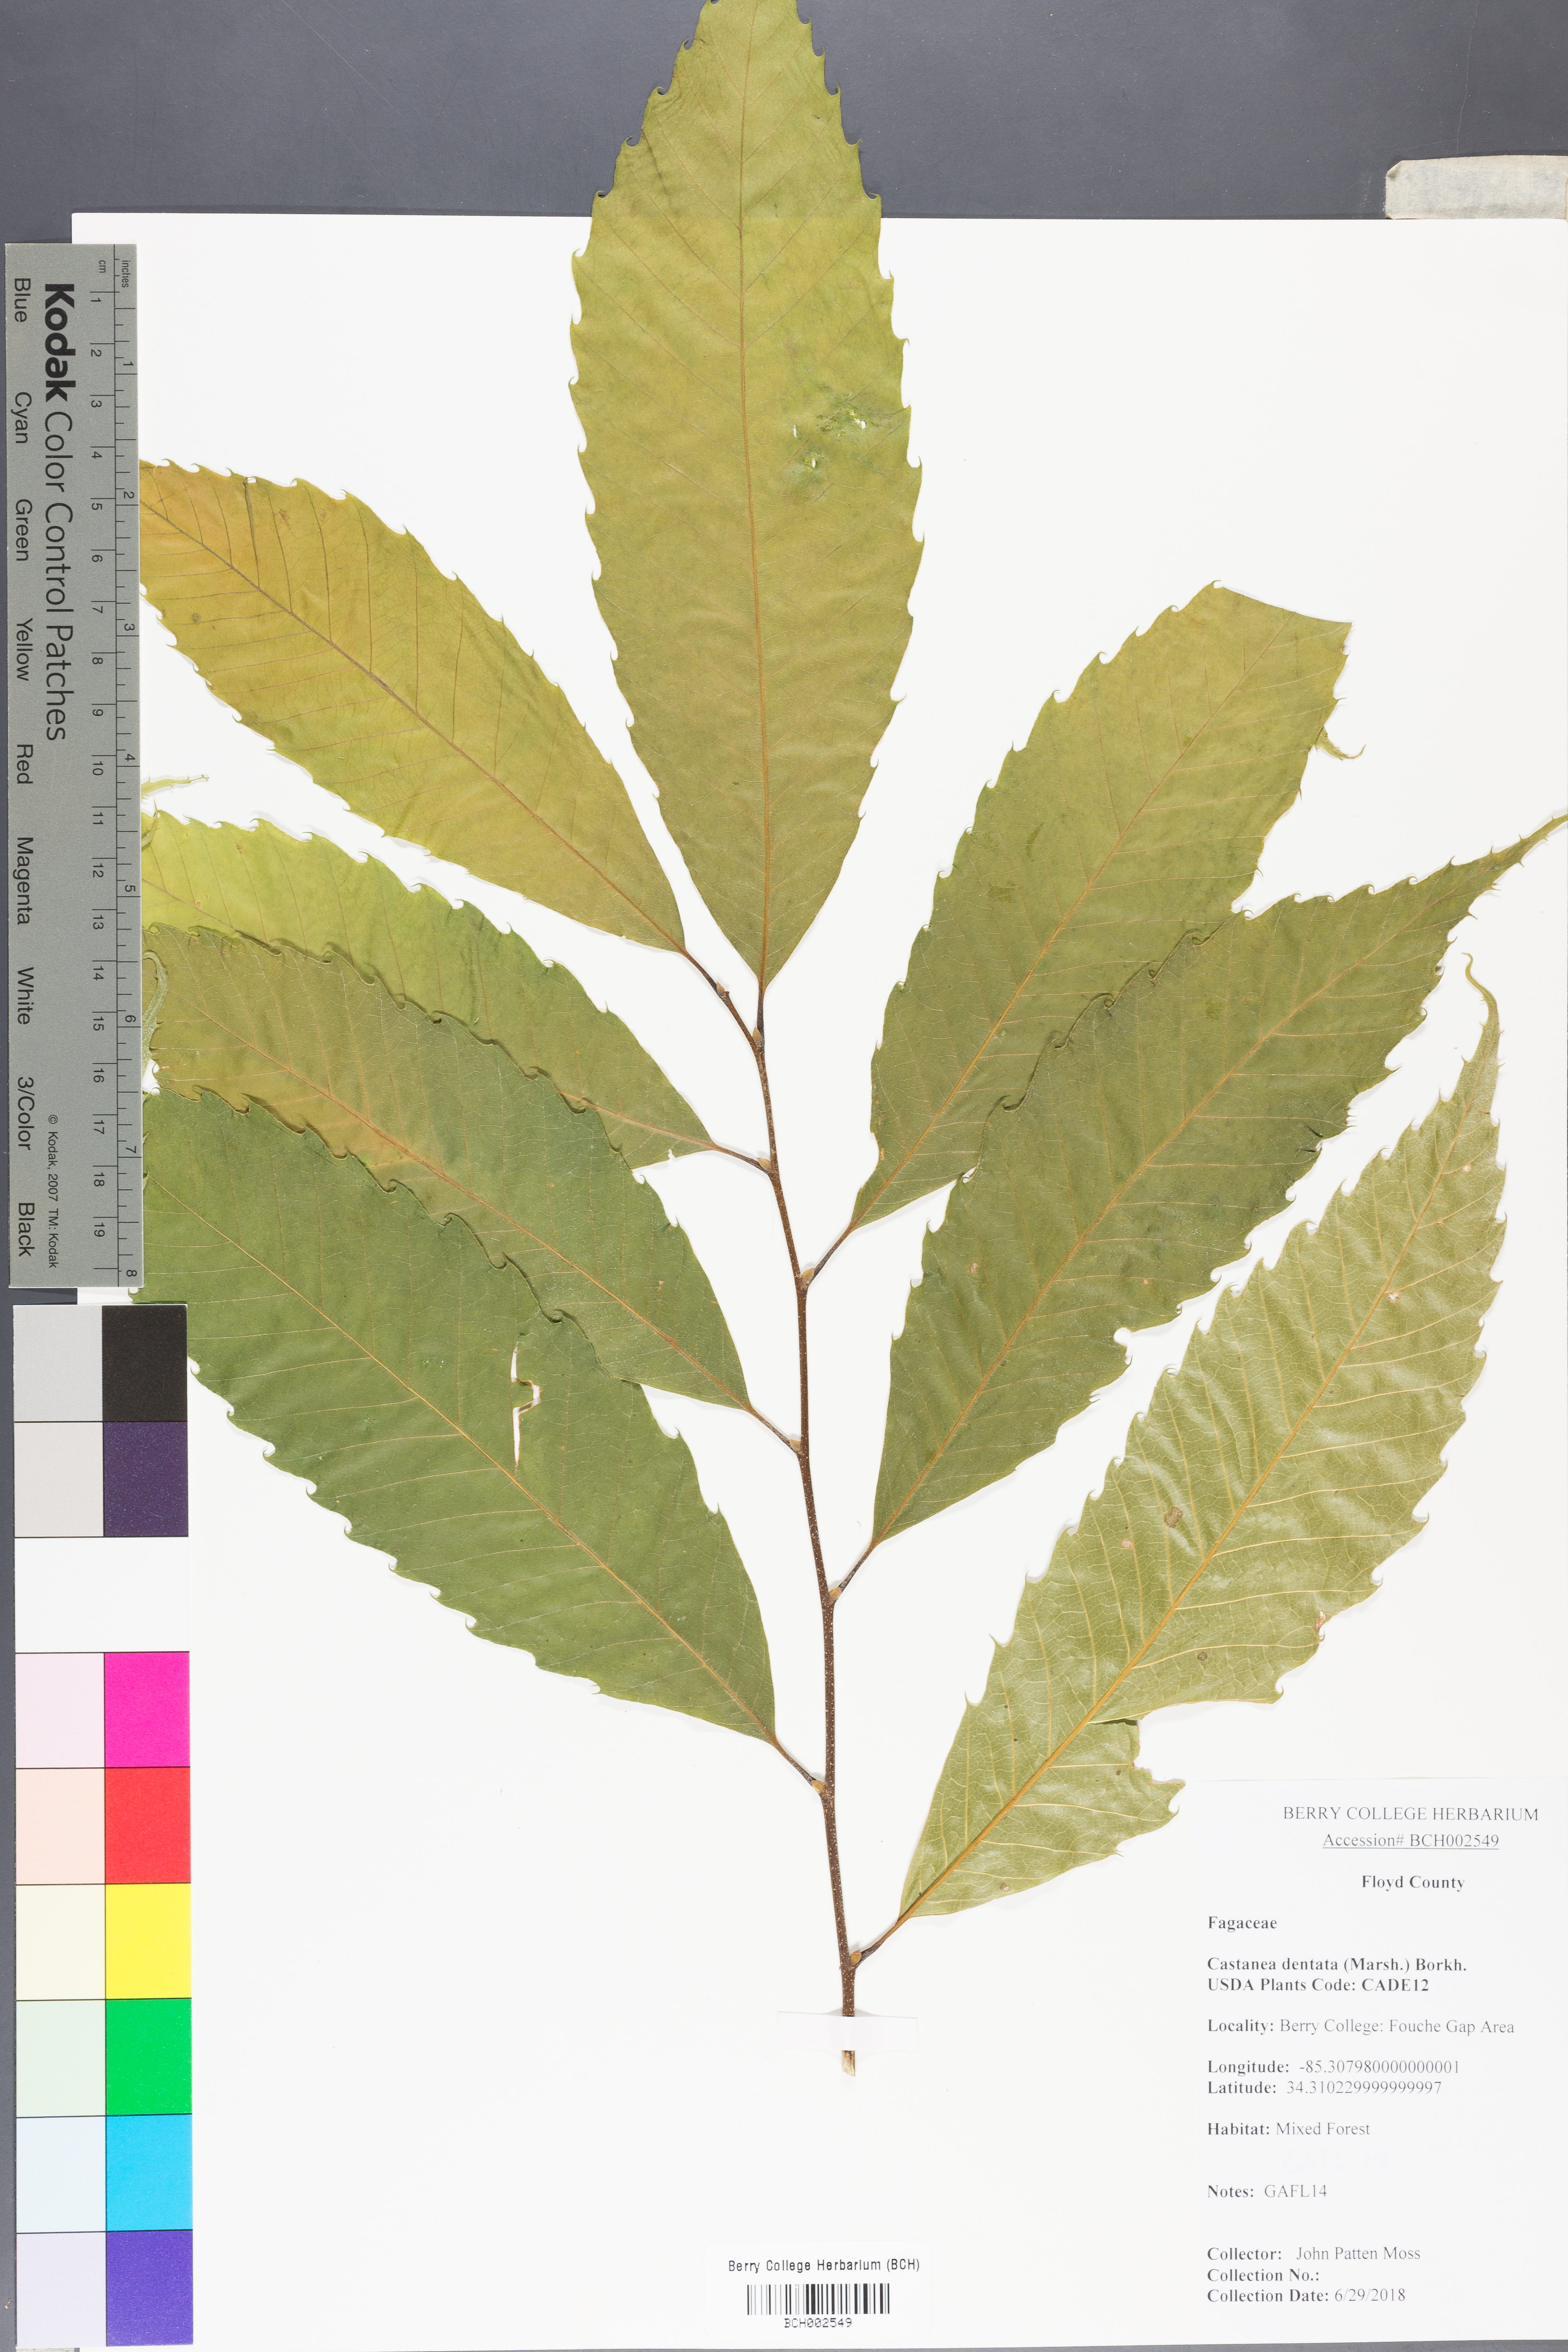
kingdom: Plantae
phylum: Tracheophyta
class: Magnoliopsida
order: Fagales
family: Fagaceae
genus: Castanea
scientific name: Castanea dentata
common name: American chestnut
